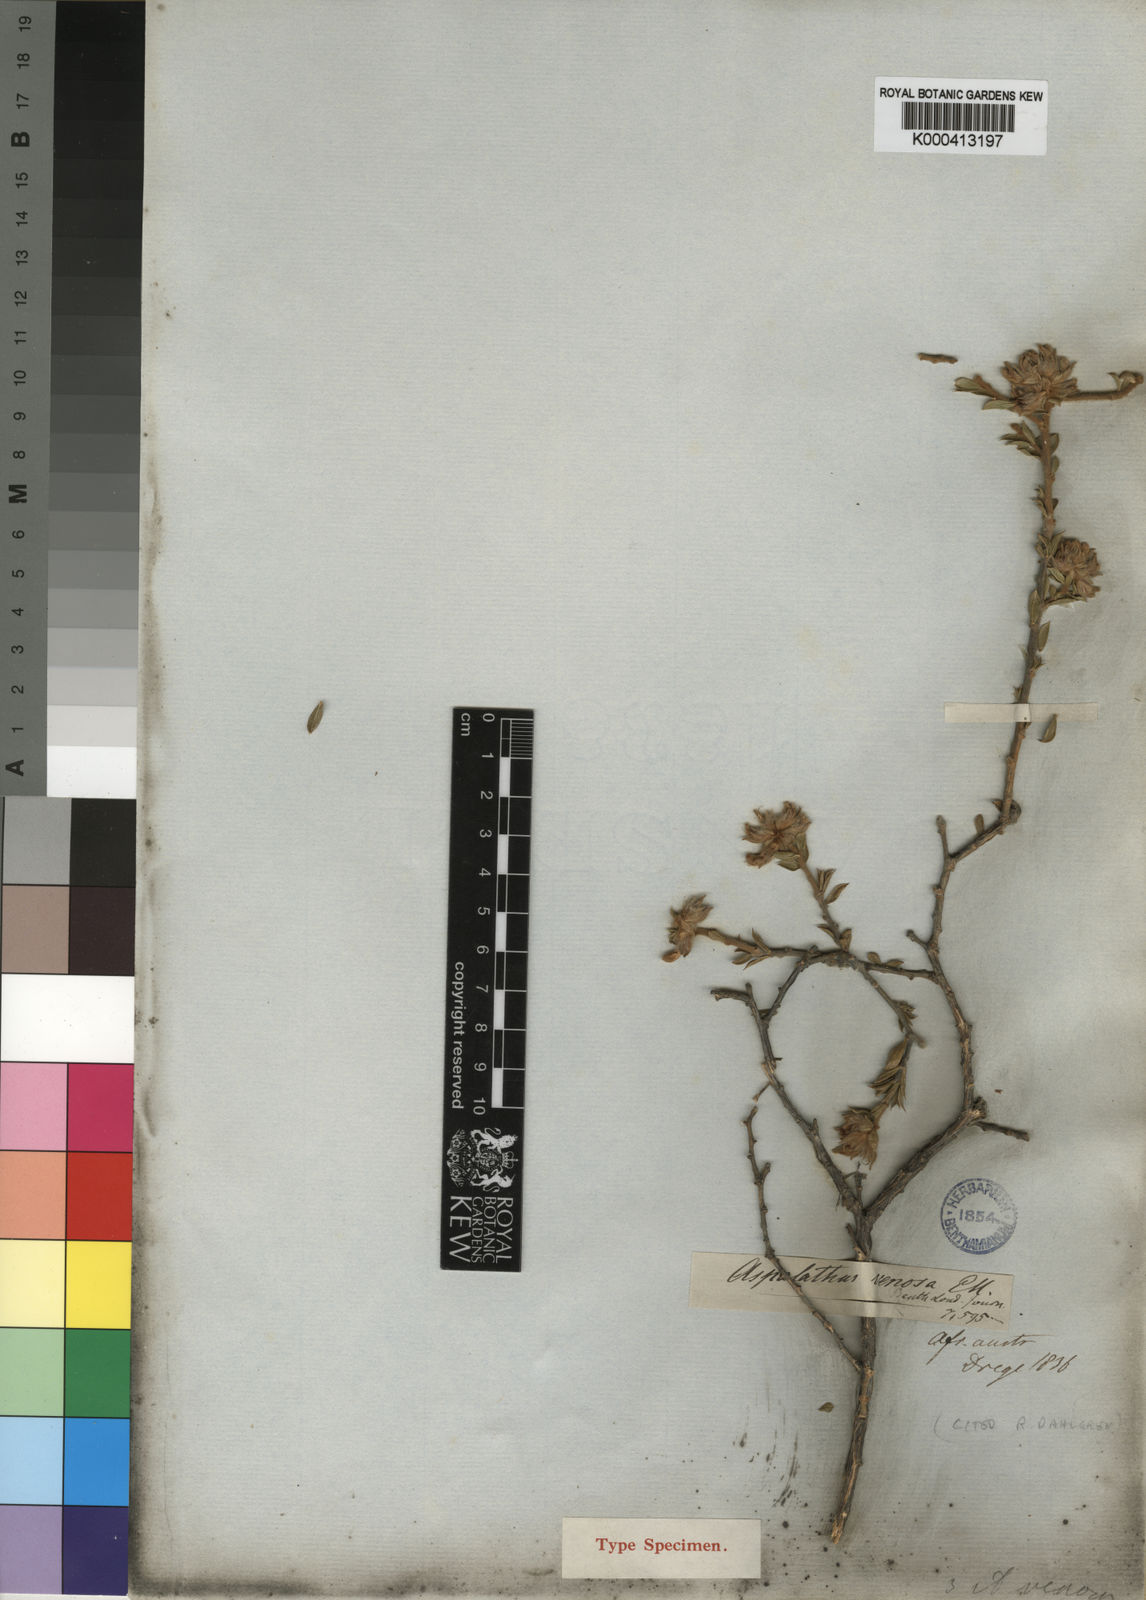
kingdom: Plantae
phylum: Tracheophyta
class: Magnoliopsida
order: Fabales
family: Fabaceae
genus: Aspalathus
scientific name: Aspalathus venosa
